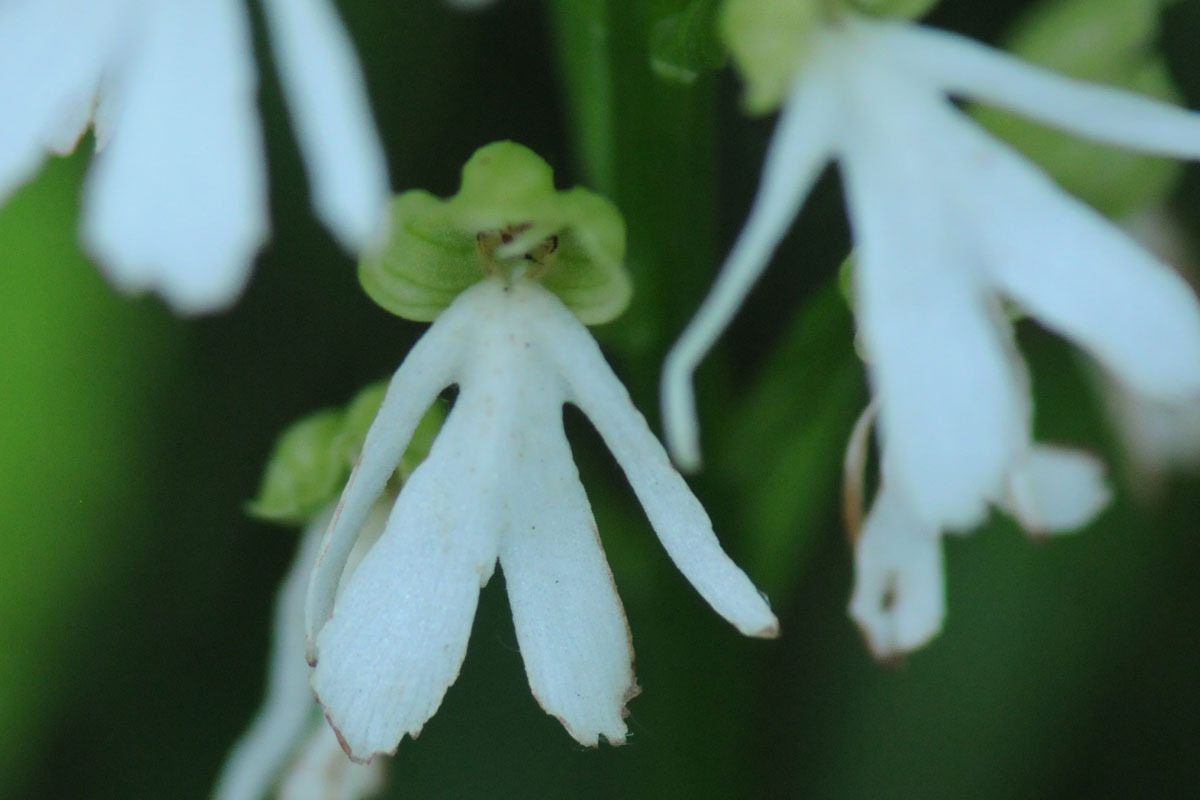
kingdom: Plantae
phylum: Tracheophyta
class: Liliopsida
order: Asparagales
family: Orchidaceae
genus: Orchis
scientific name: Orchis purpurea
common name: Stor gøgeurt
